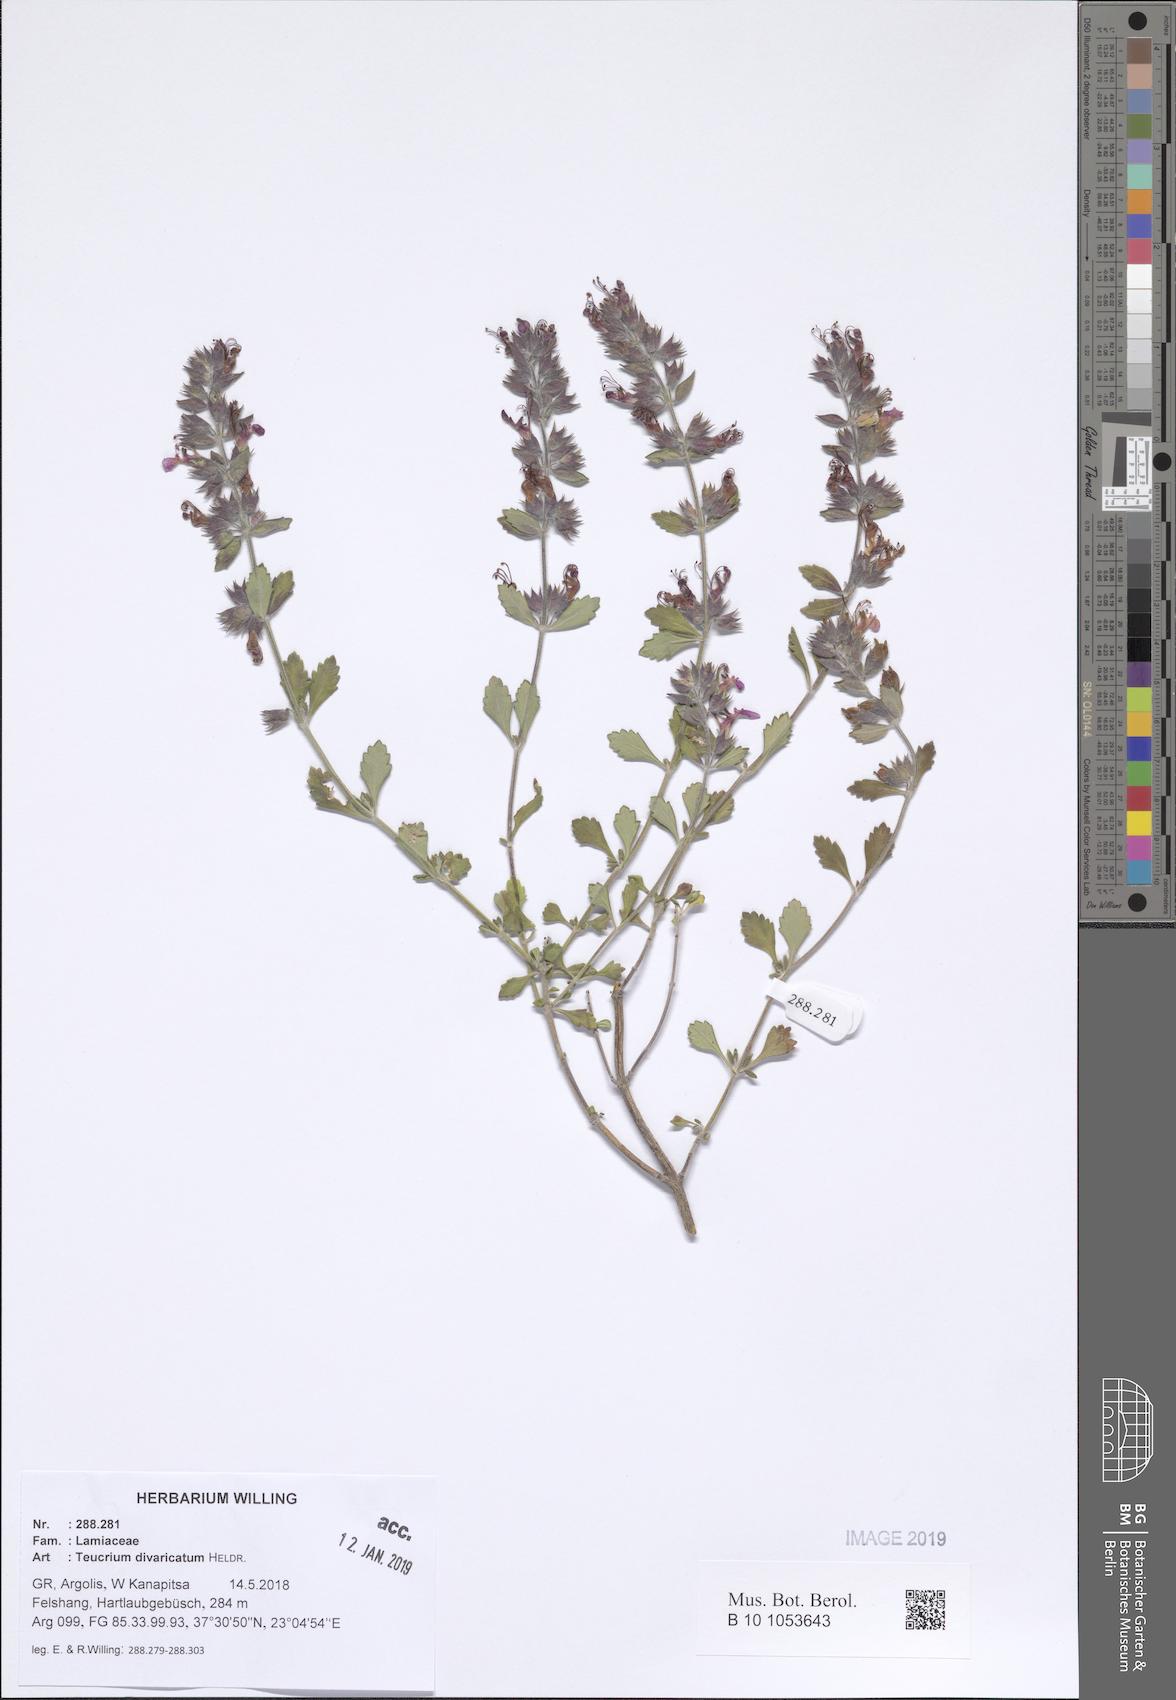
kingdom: Plantae
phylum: Tracheophyta
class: Magnoliopsida
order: Lamiales
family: Lamiaceae
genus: Teucrium
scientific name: Teucrium divaricatum
